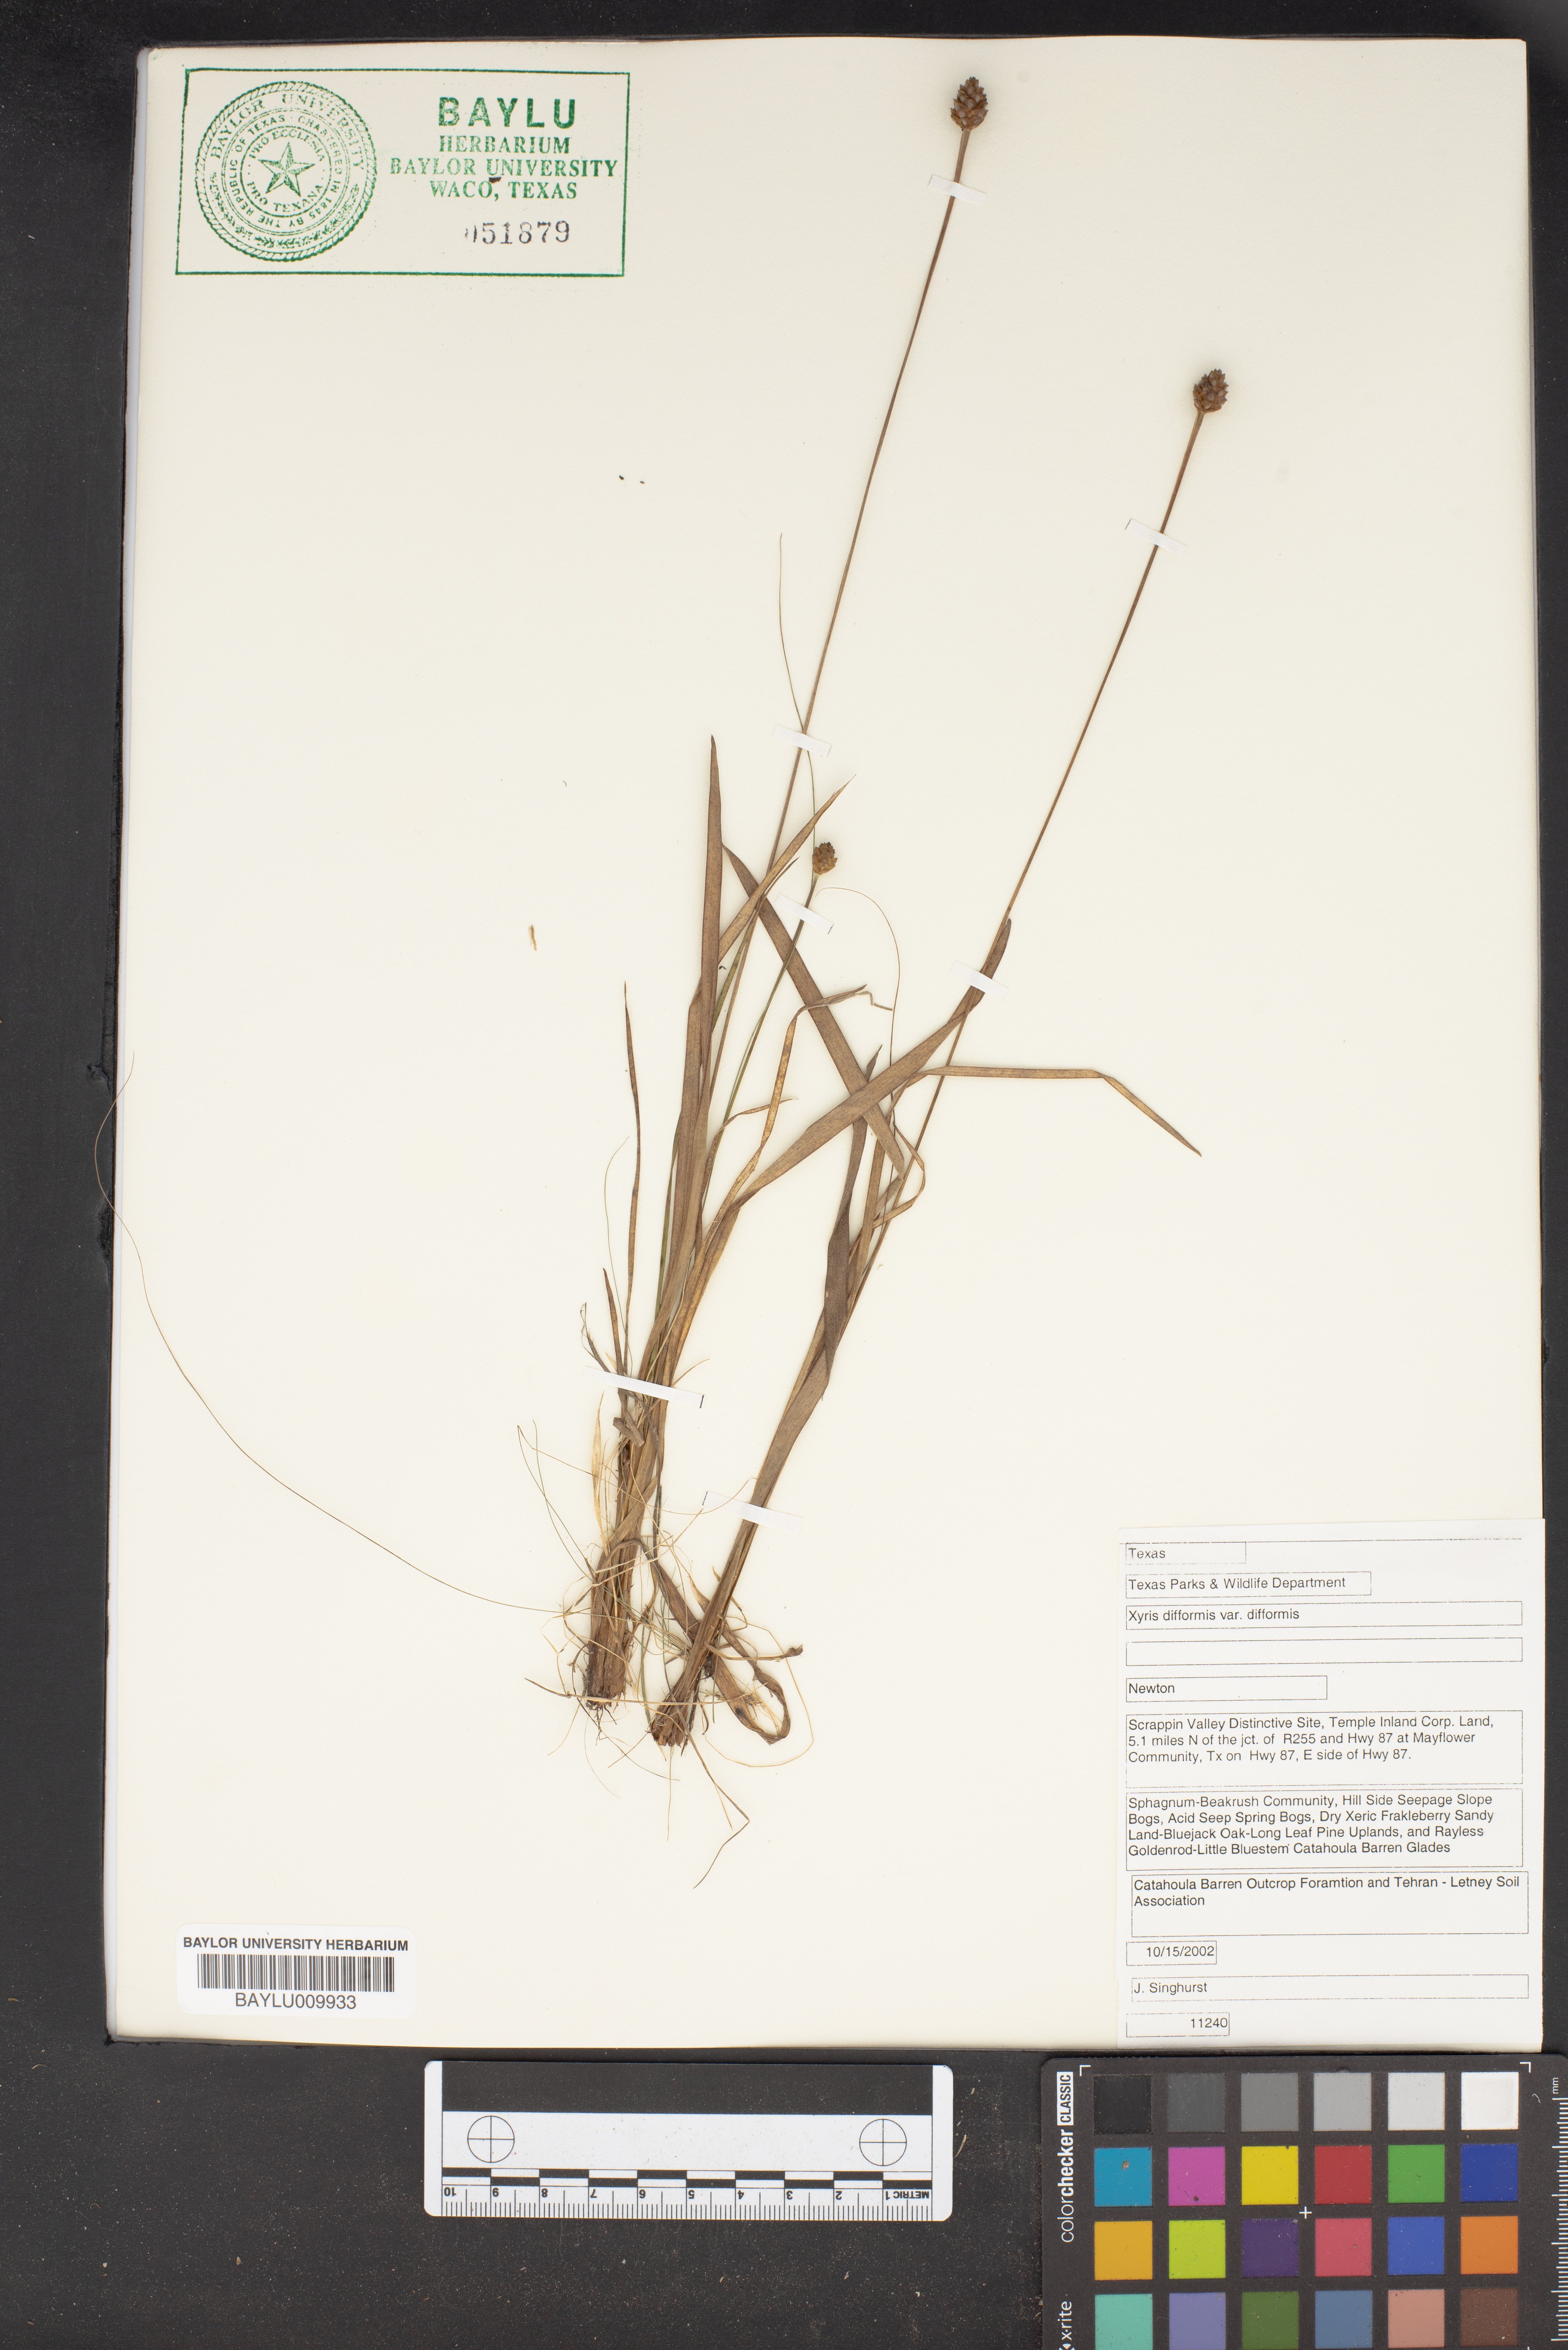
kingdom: Plantae
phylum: Tracheophyta
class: Liliopsida
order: Poales
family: Xyridaceae
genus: Xyris
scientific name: Xyris difformis
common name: Bog yellow-eyed-grass
